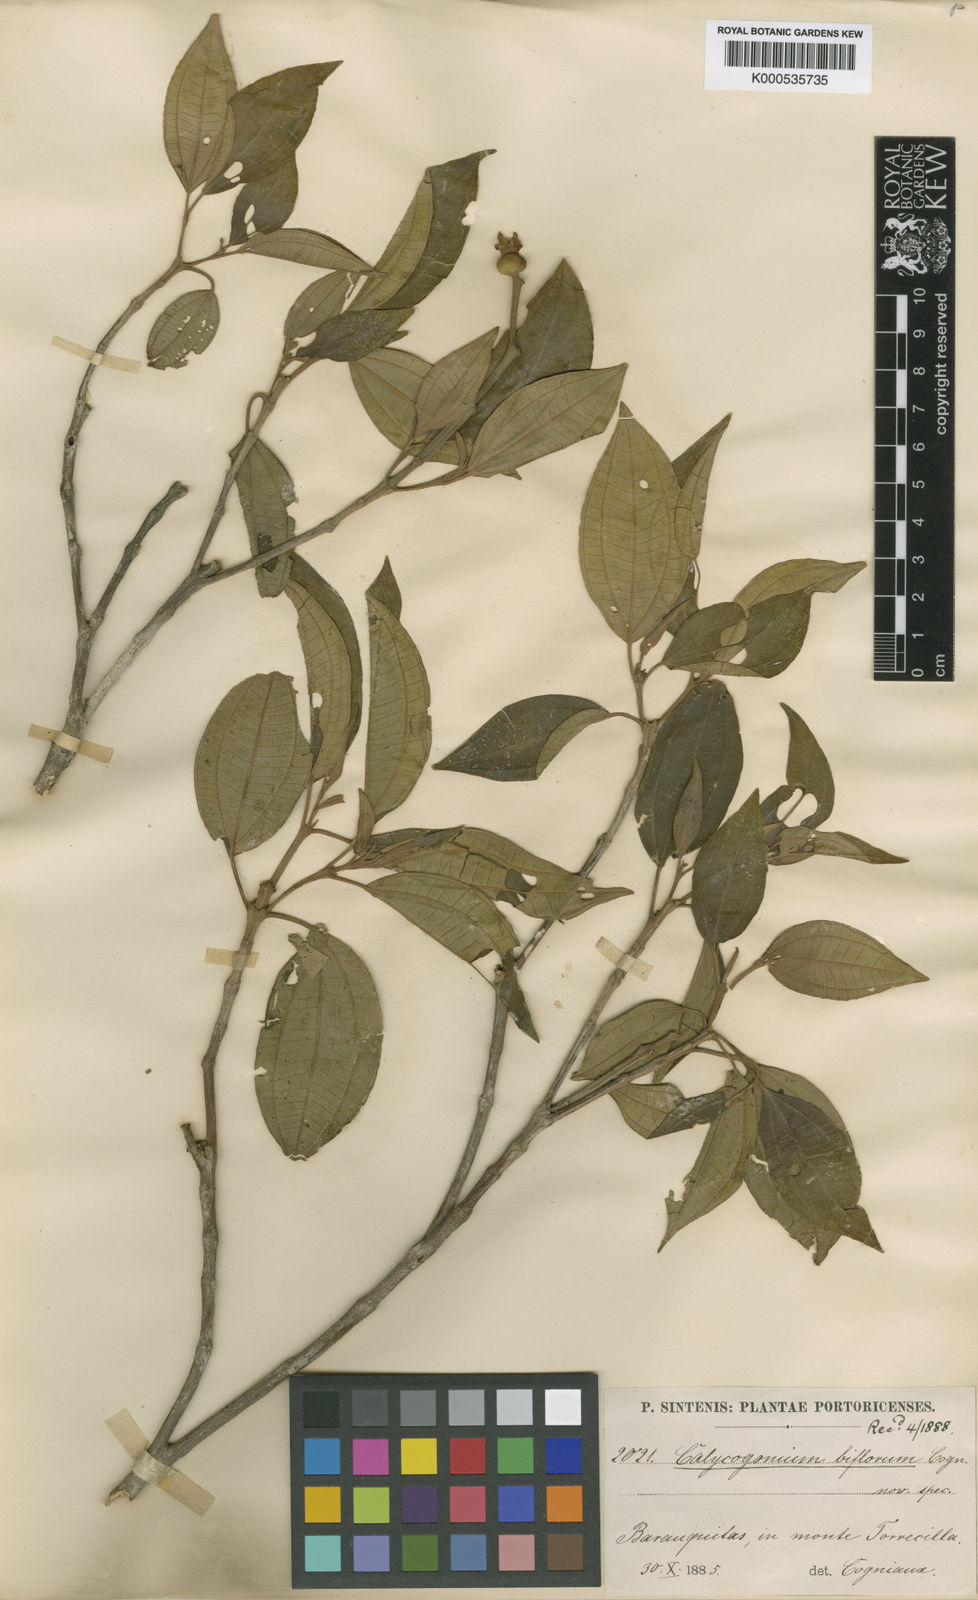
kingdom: Plantae
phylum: Tracheophyta
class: Magnoliopsida
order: Myrtales
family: Melastomataceae
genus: Miconia
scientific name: Miconia biflora
